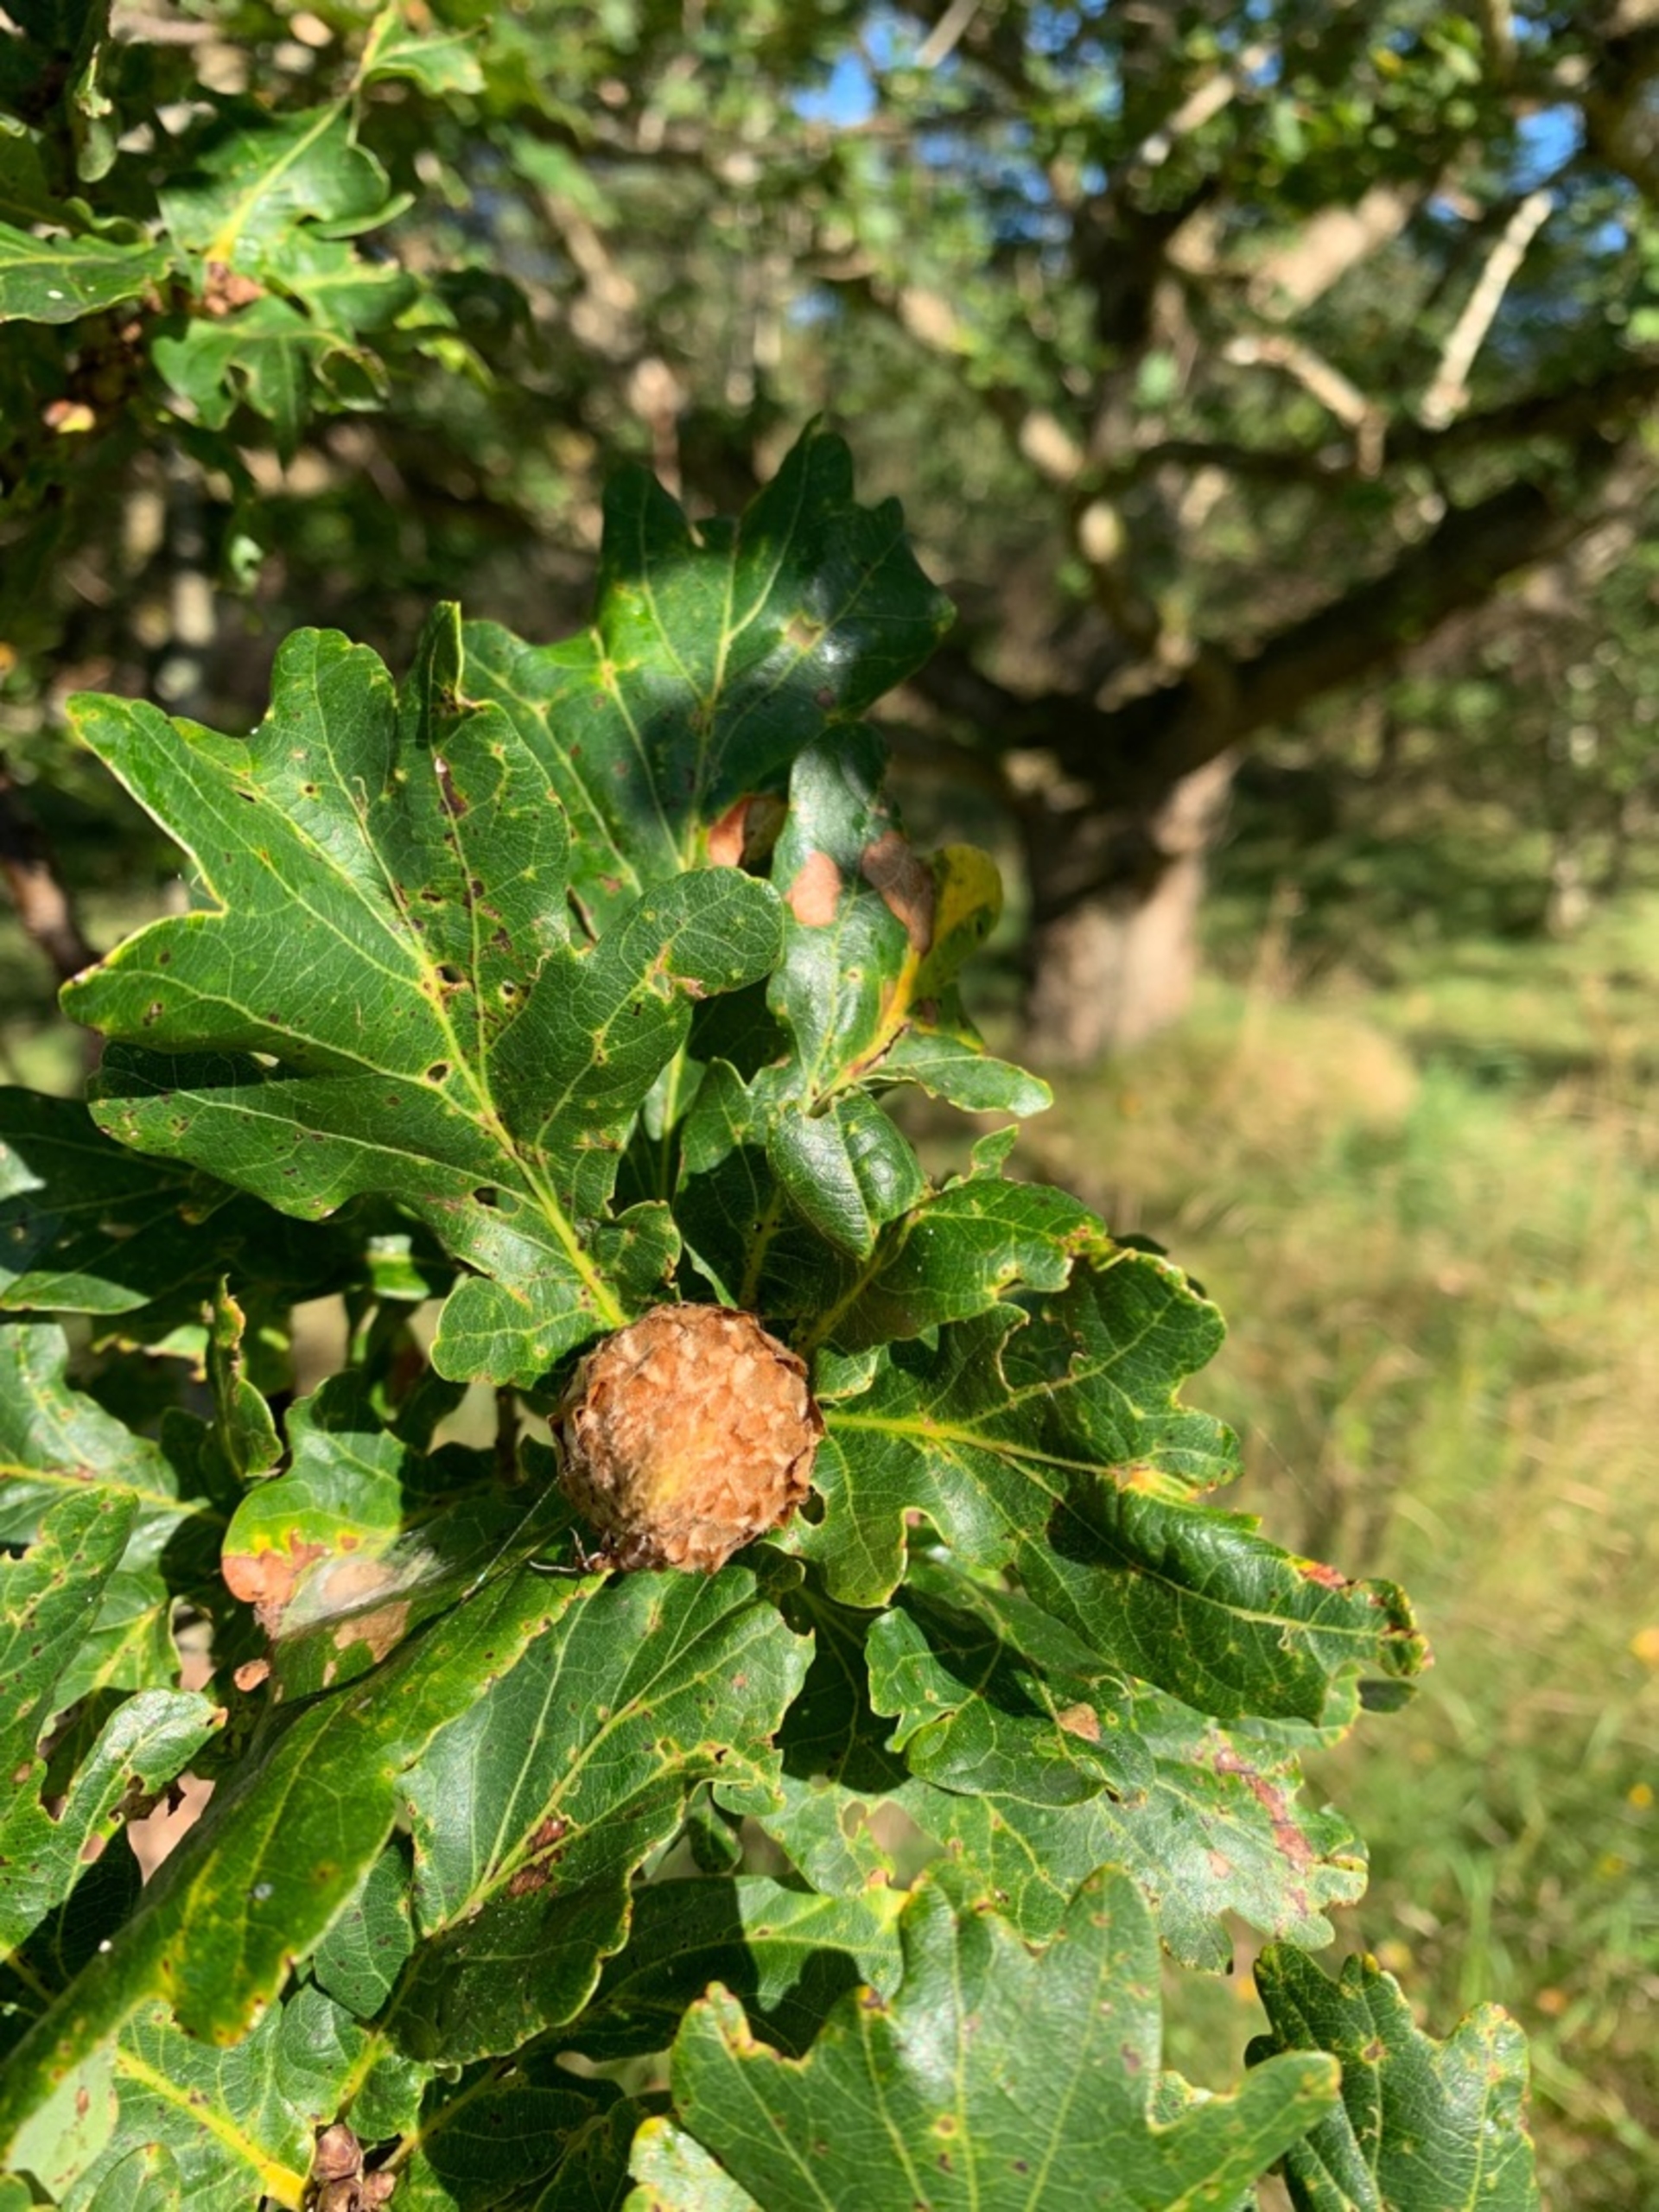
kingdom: Animalia
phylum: Arthropoda
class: Insecta
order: Hymenoptera
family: Cynipidae
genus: Andricus
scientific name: Andricus foecundatrix
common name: Artiskokgalhveps
